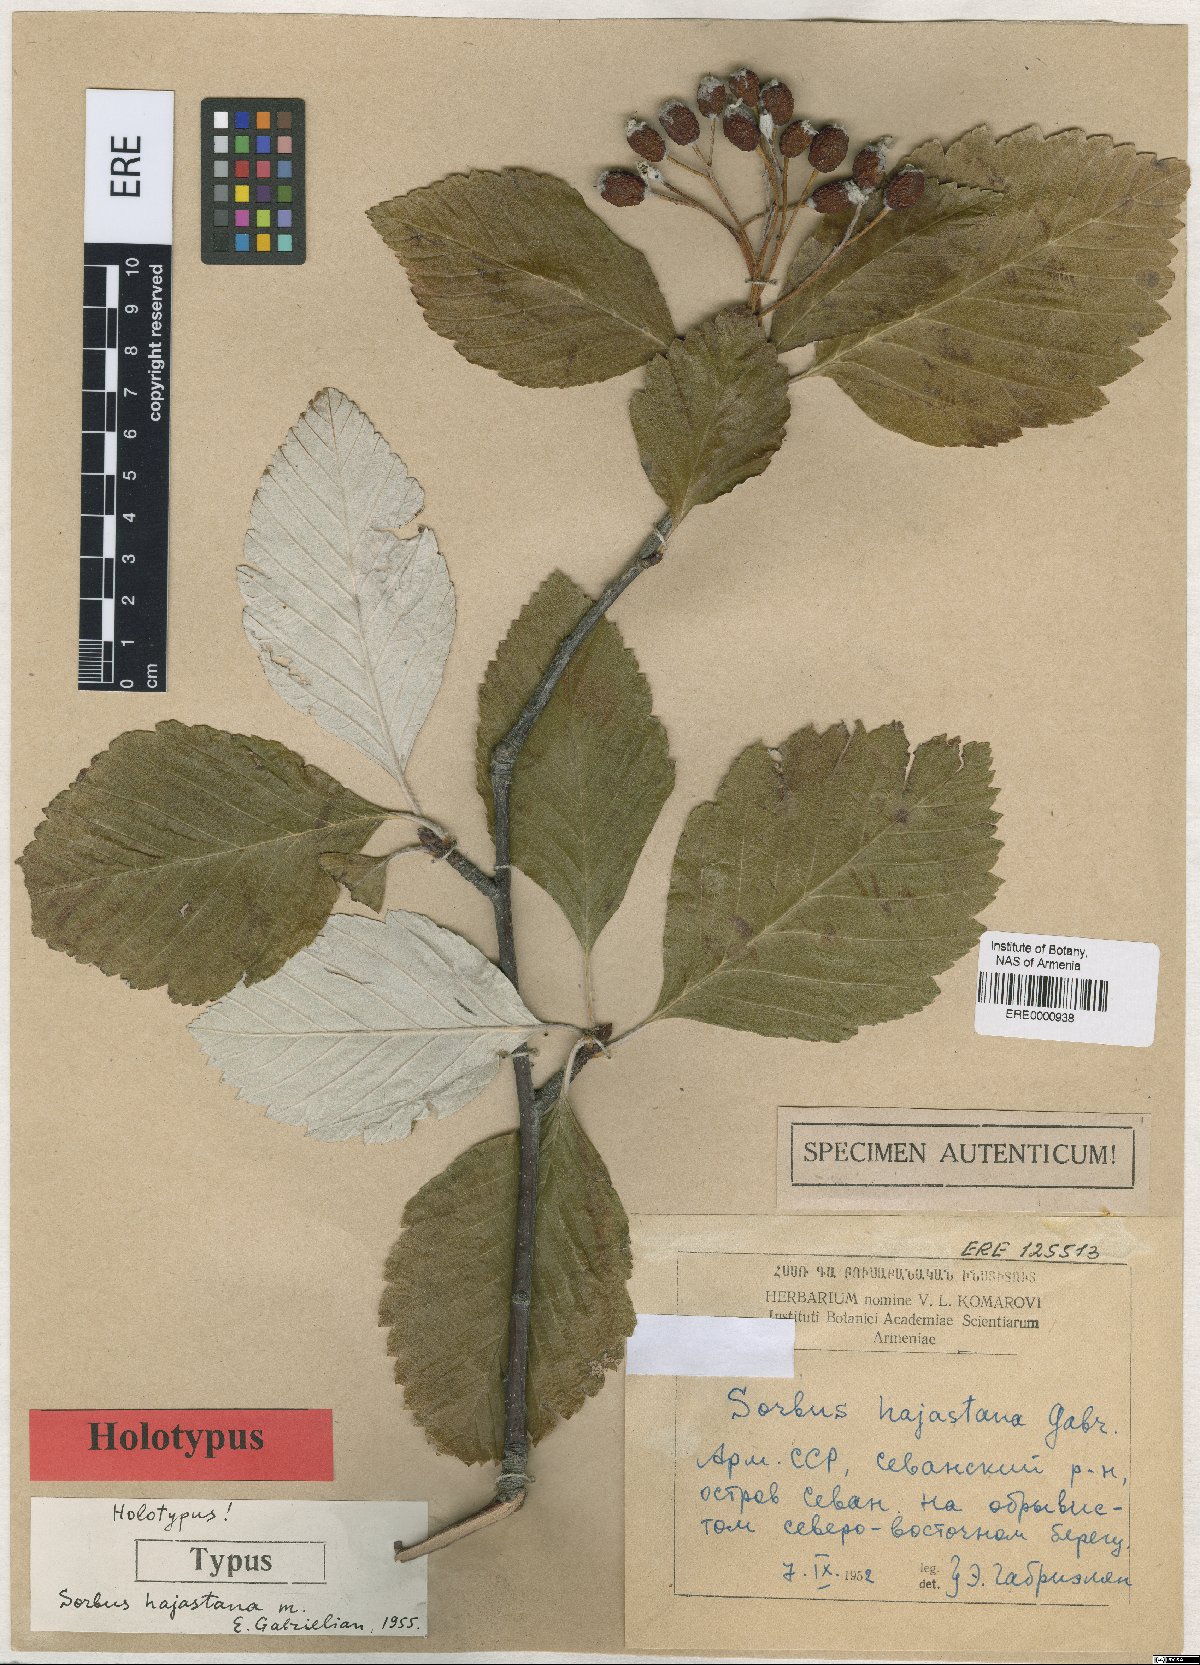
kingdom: Plantae
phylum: Tracheophyta
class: Magnoliopsida
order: Rosales
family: Rosaceae
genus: Sorbus
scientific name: Sorbus hajastana
